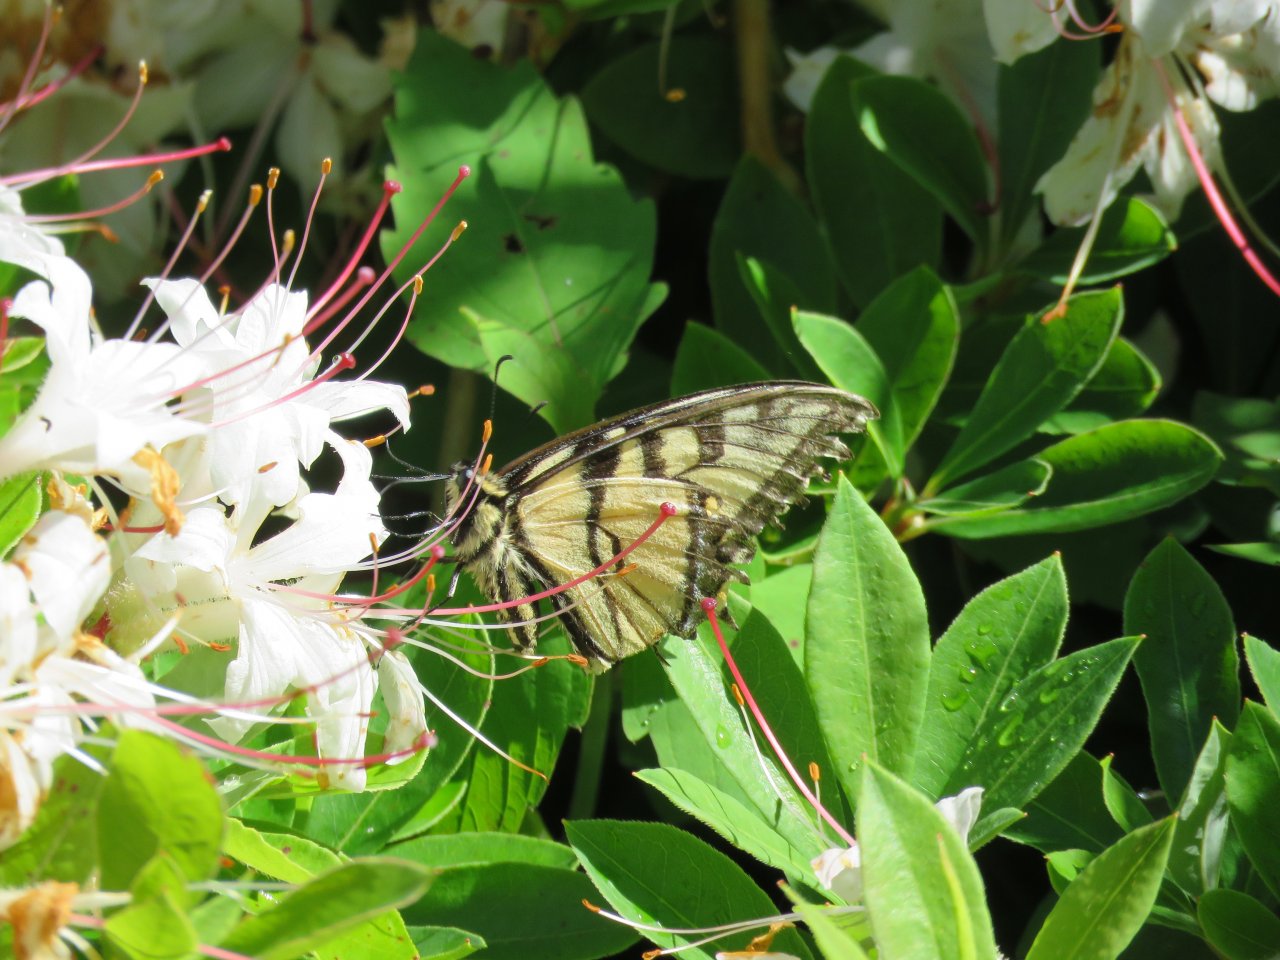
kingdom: Animalia
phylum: Arthropoda
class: Insecta
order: Lepidoptera
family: Papilionidae
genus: Pterourus
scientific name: Pterourus canadensis
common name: Canadian Tiger Swallowtail
